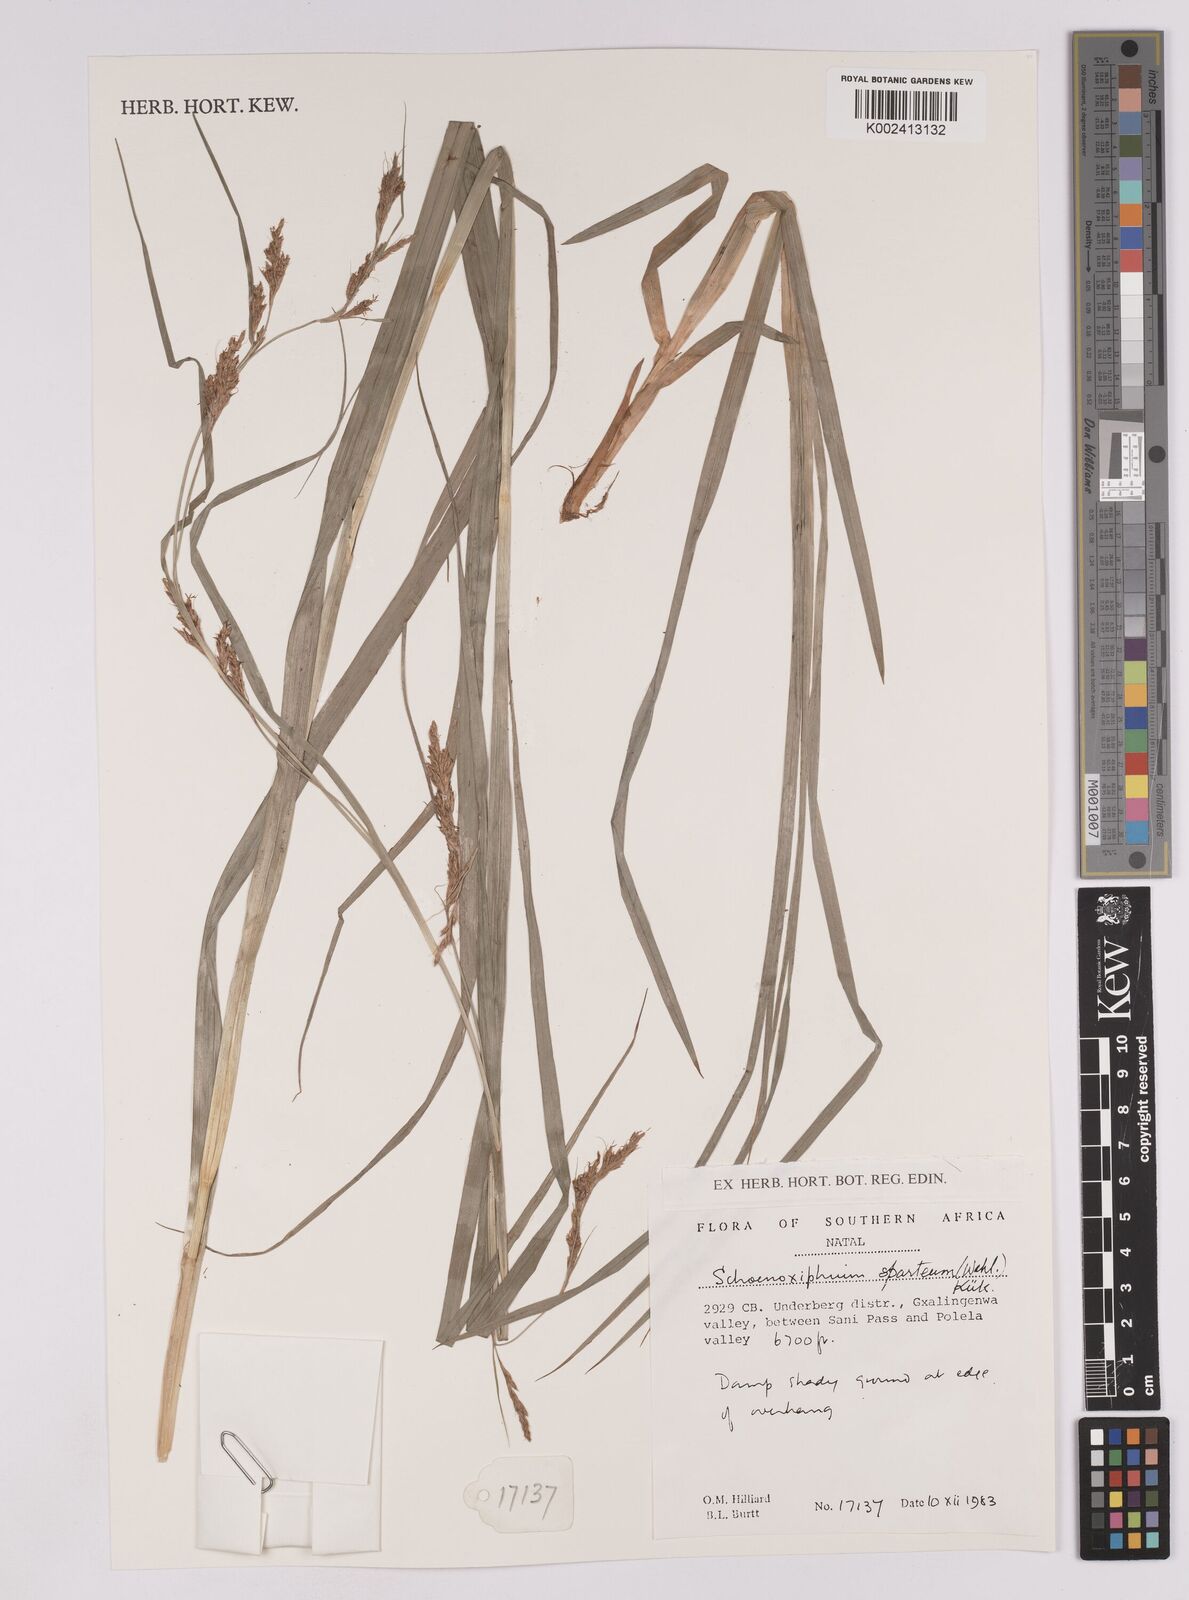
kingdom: Plantae
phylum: Tracheophyta
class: Liliopsida
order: Poales
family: Cyperaceae
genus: Carex
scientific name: Carex spartea
